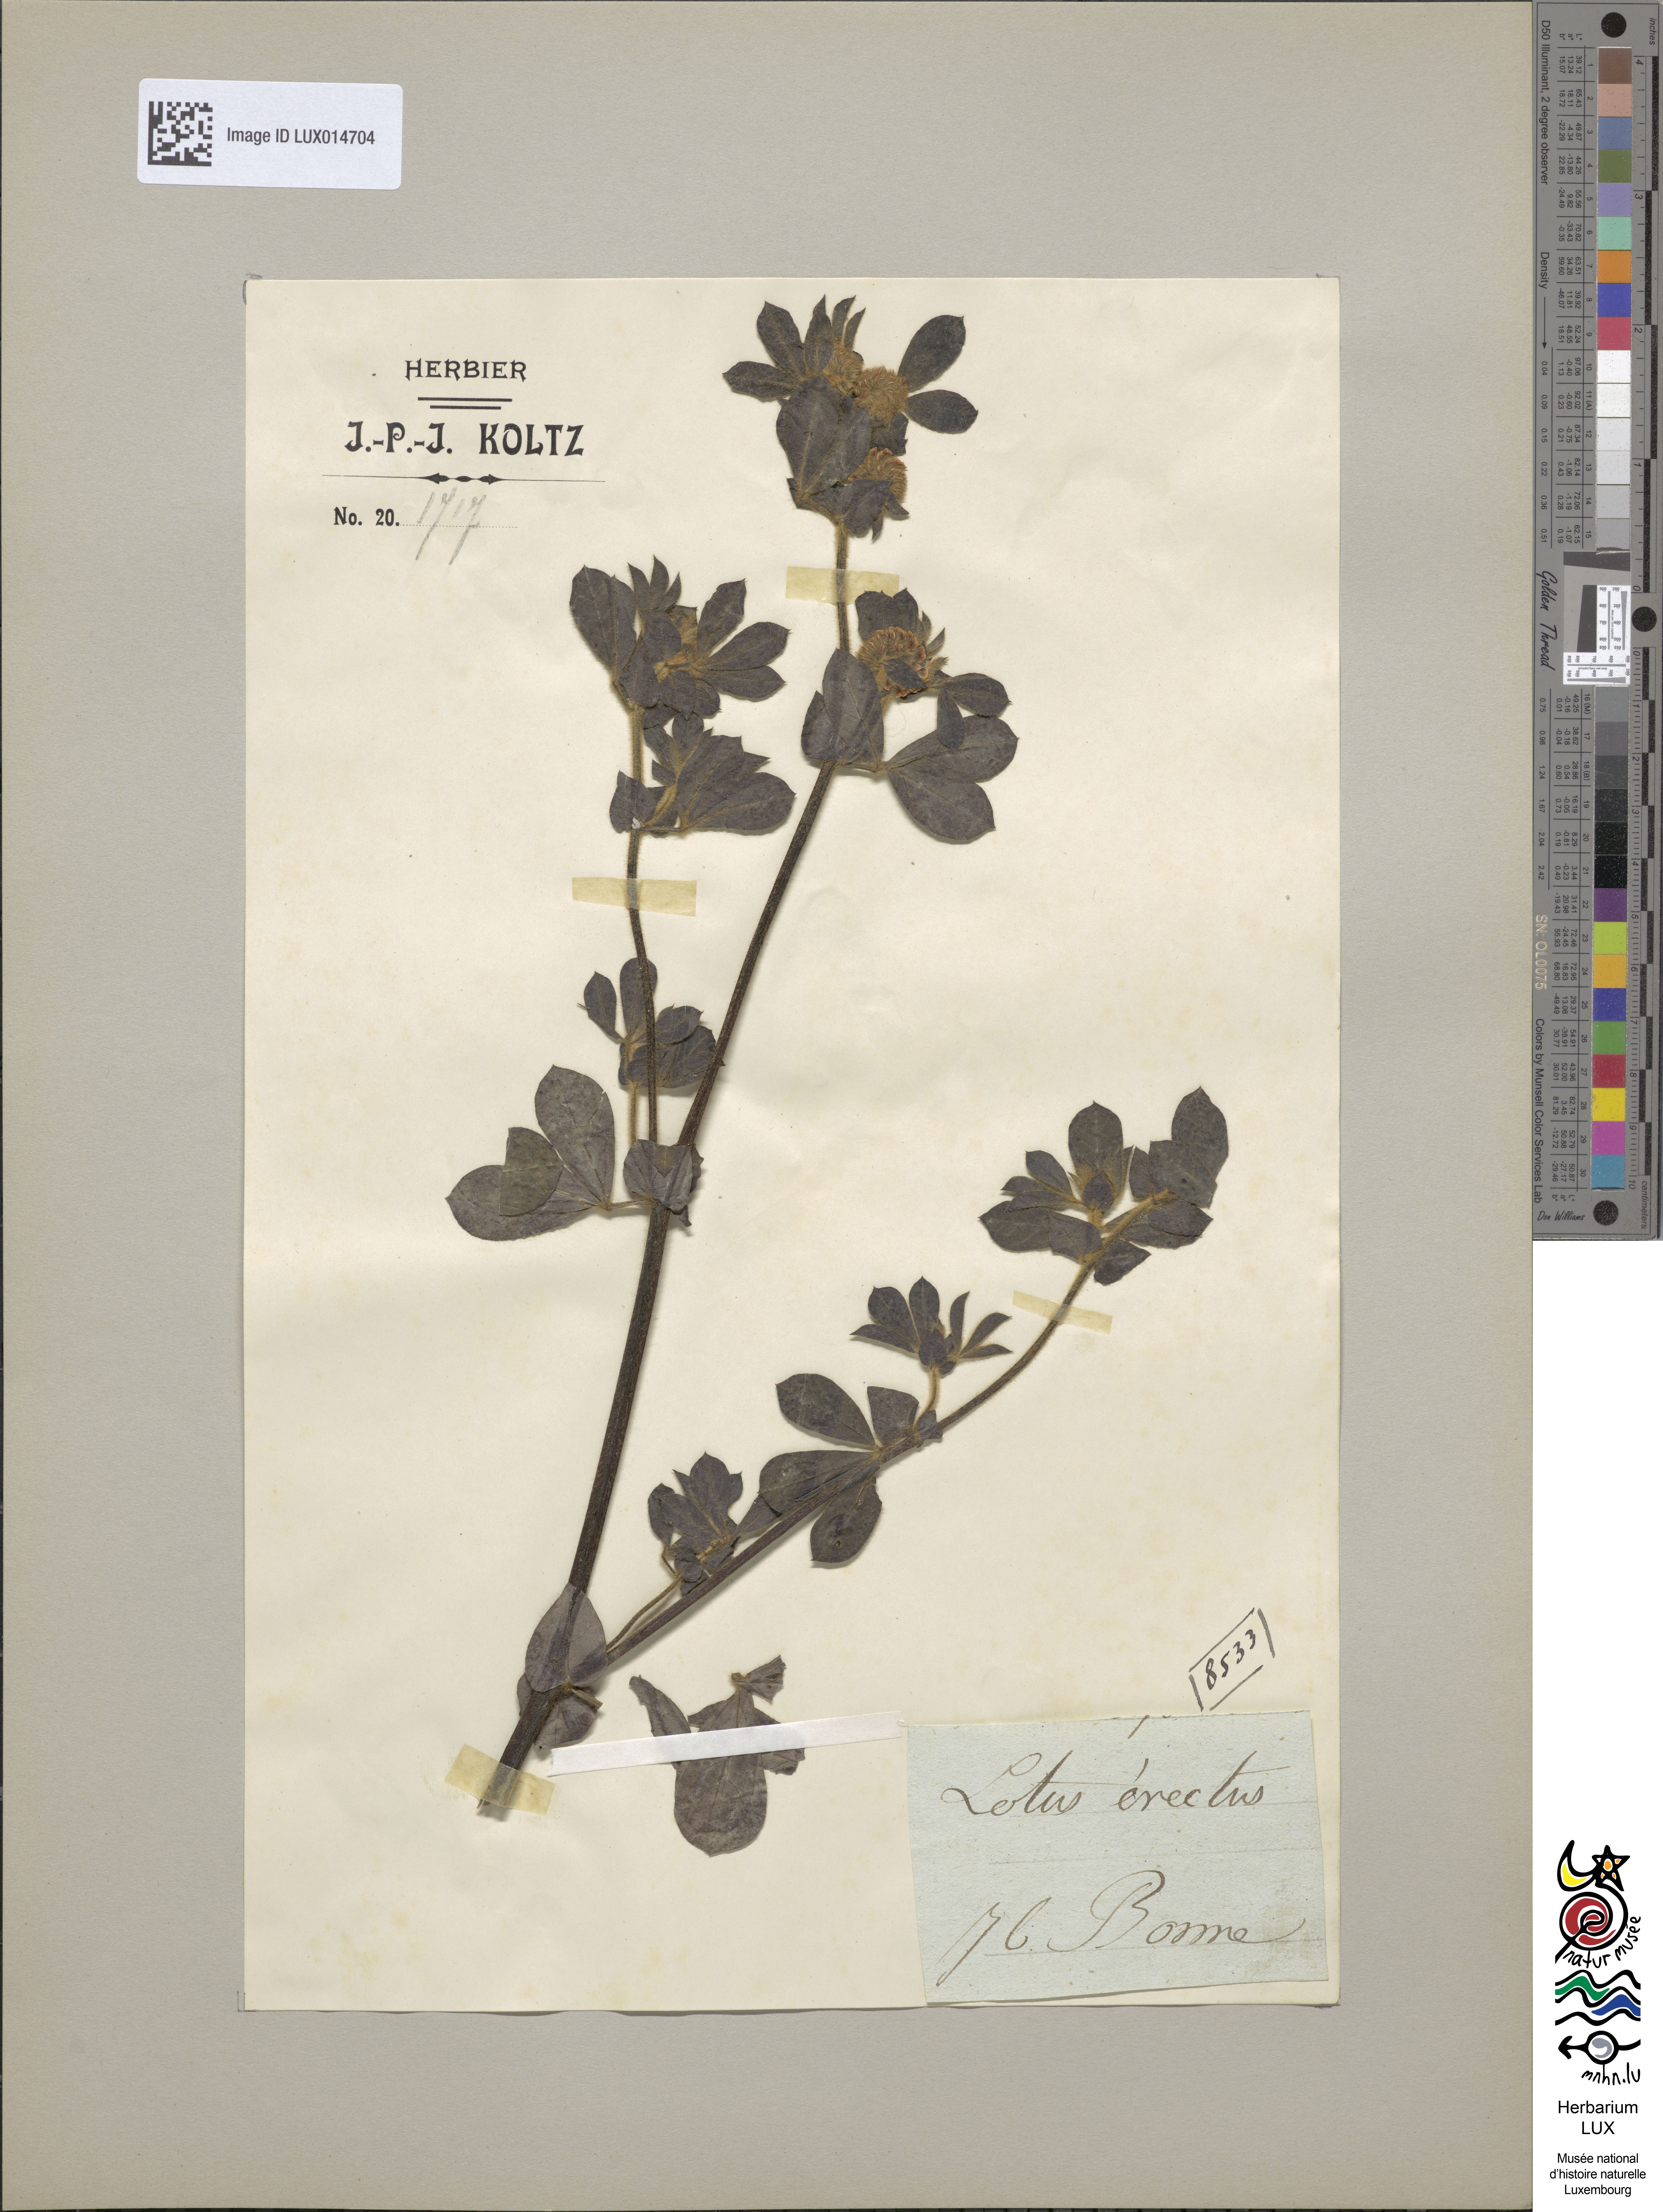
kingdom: Plantae
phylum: Tracheophyta
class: Magnoliopsida
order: Fabales
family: Fabaceae
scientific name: Fabaceae
